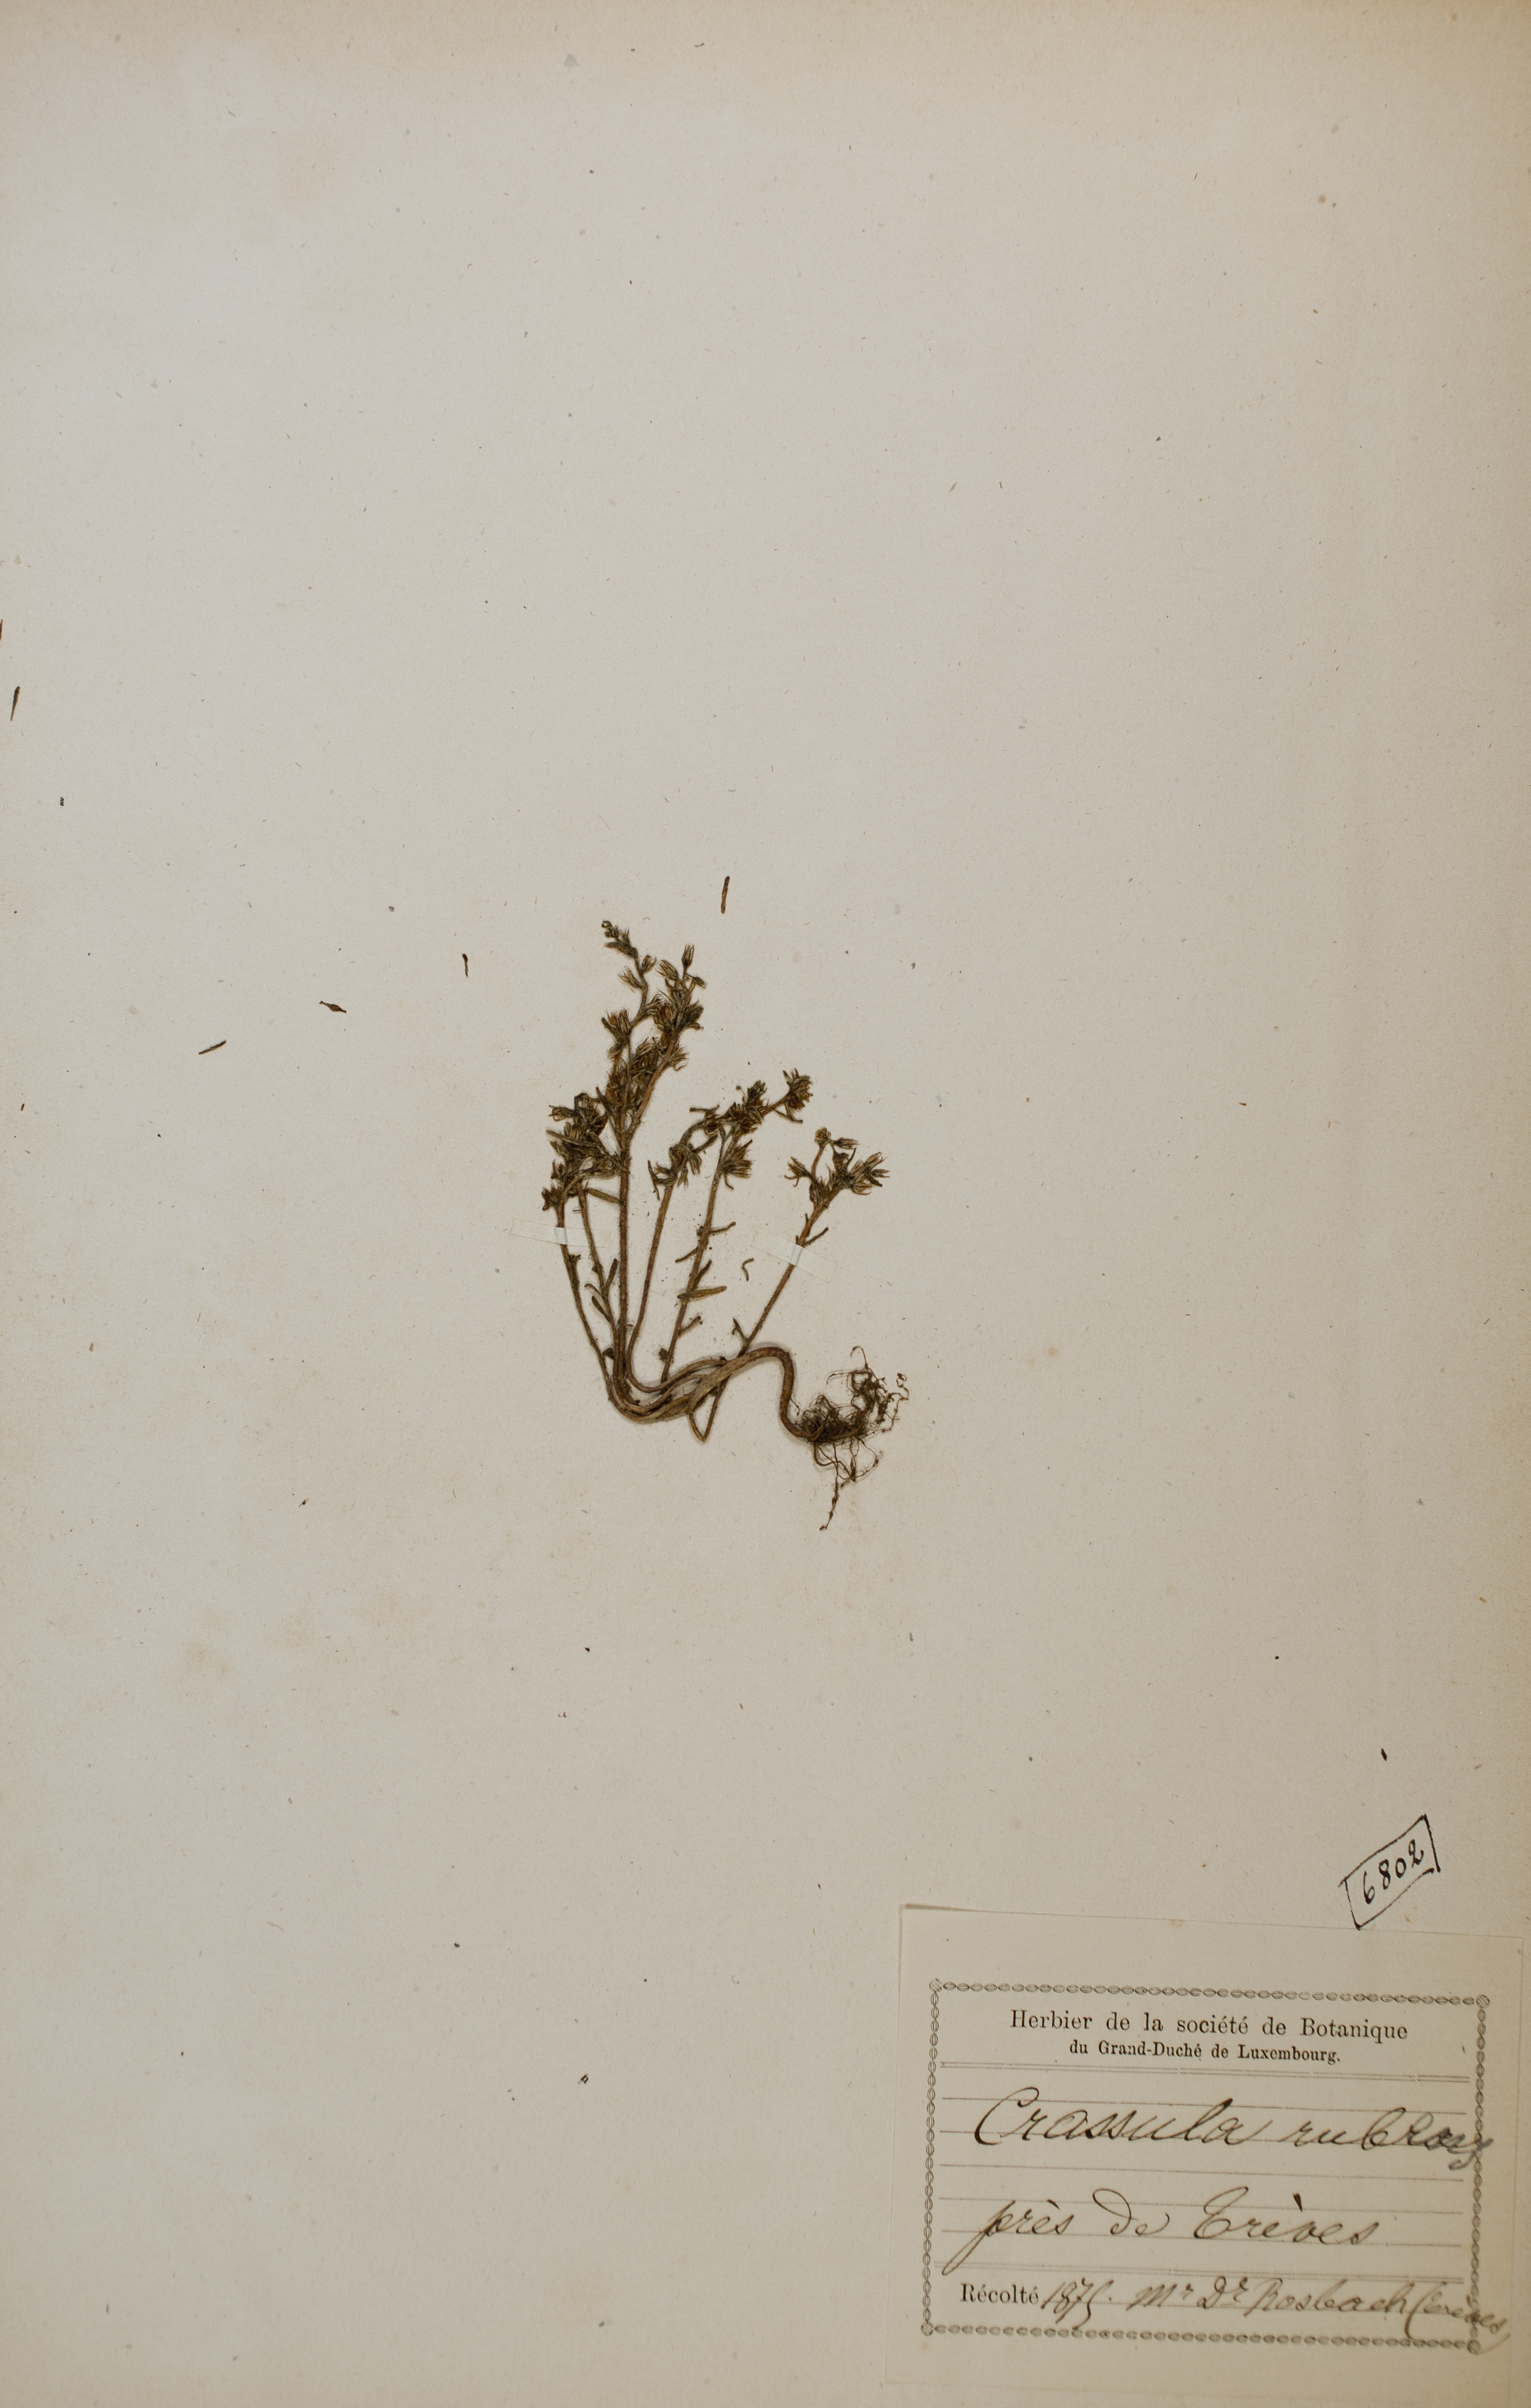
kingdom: Plantae
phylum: Tracheophyta
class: Magnoliopsida
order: Saxifragales
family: Crassulaceae
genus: Sedum
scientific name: Sedum rubens
